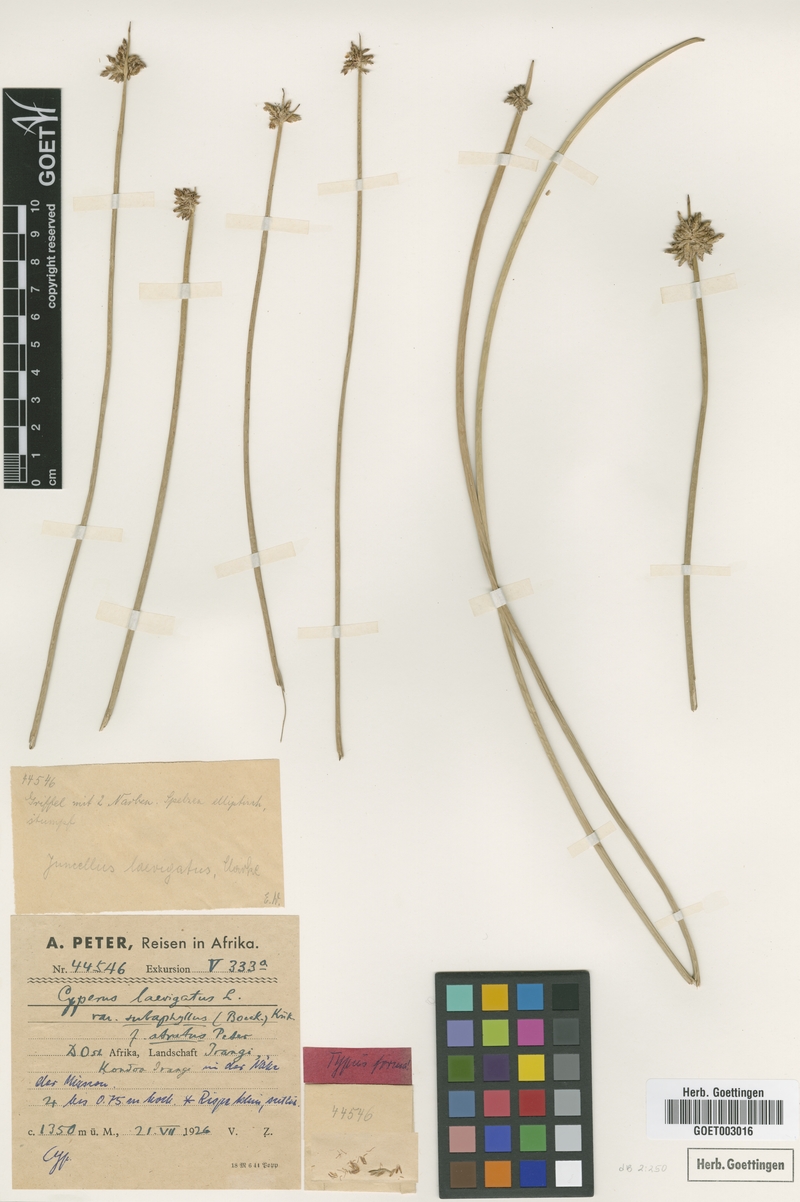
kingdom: Plantae
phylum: Tracheophyta
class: Liliopsida
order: Poales
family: Cyperaceae
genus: Cyperus
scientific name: Cyperus laevigatus
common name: Smooth flat sedge
